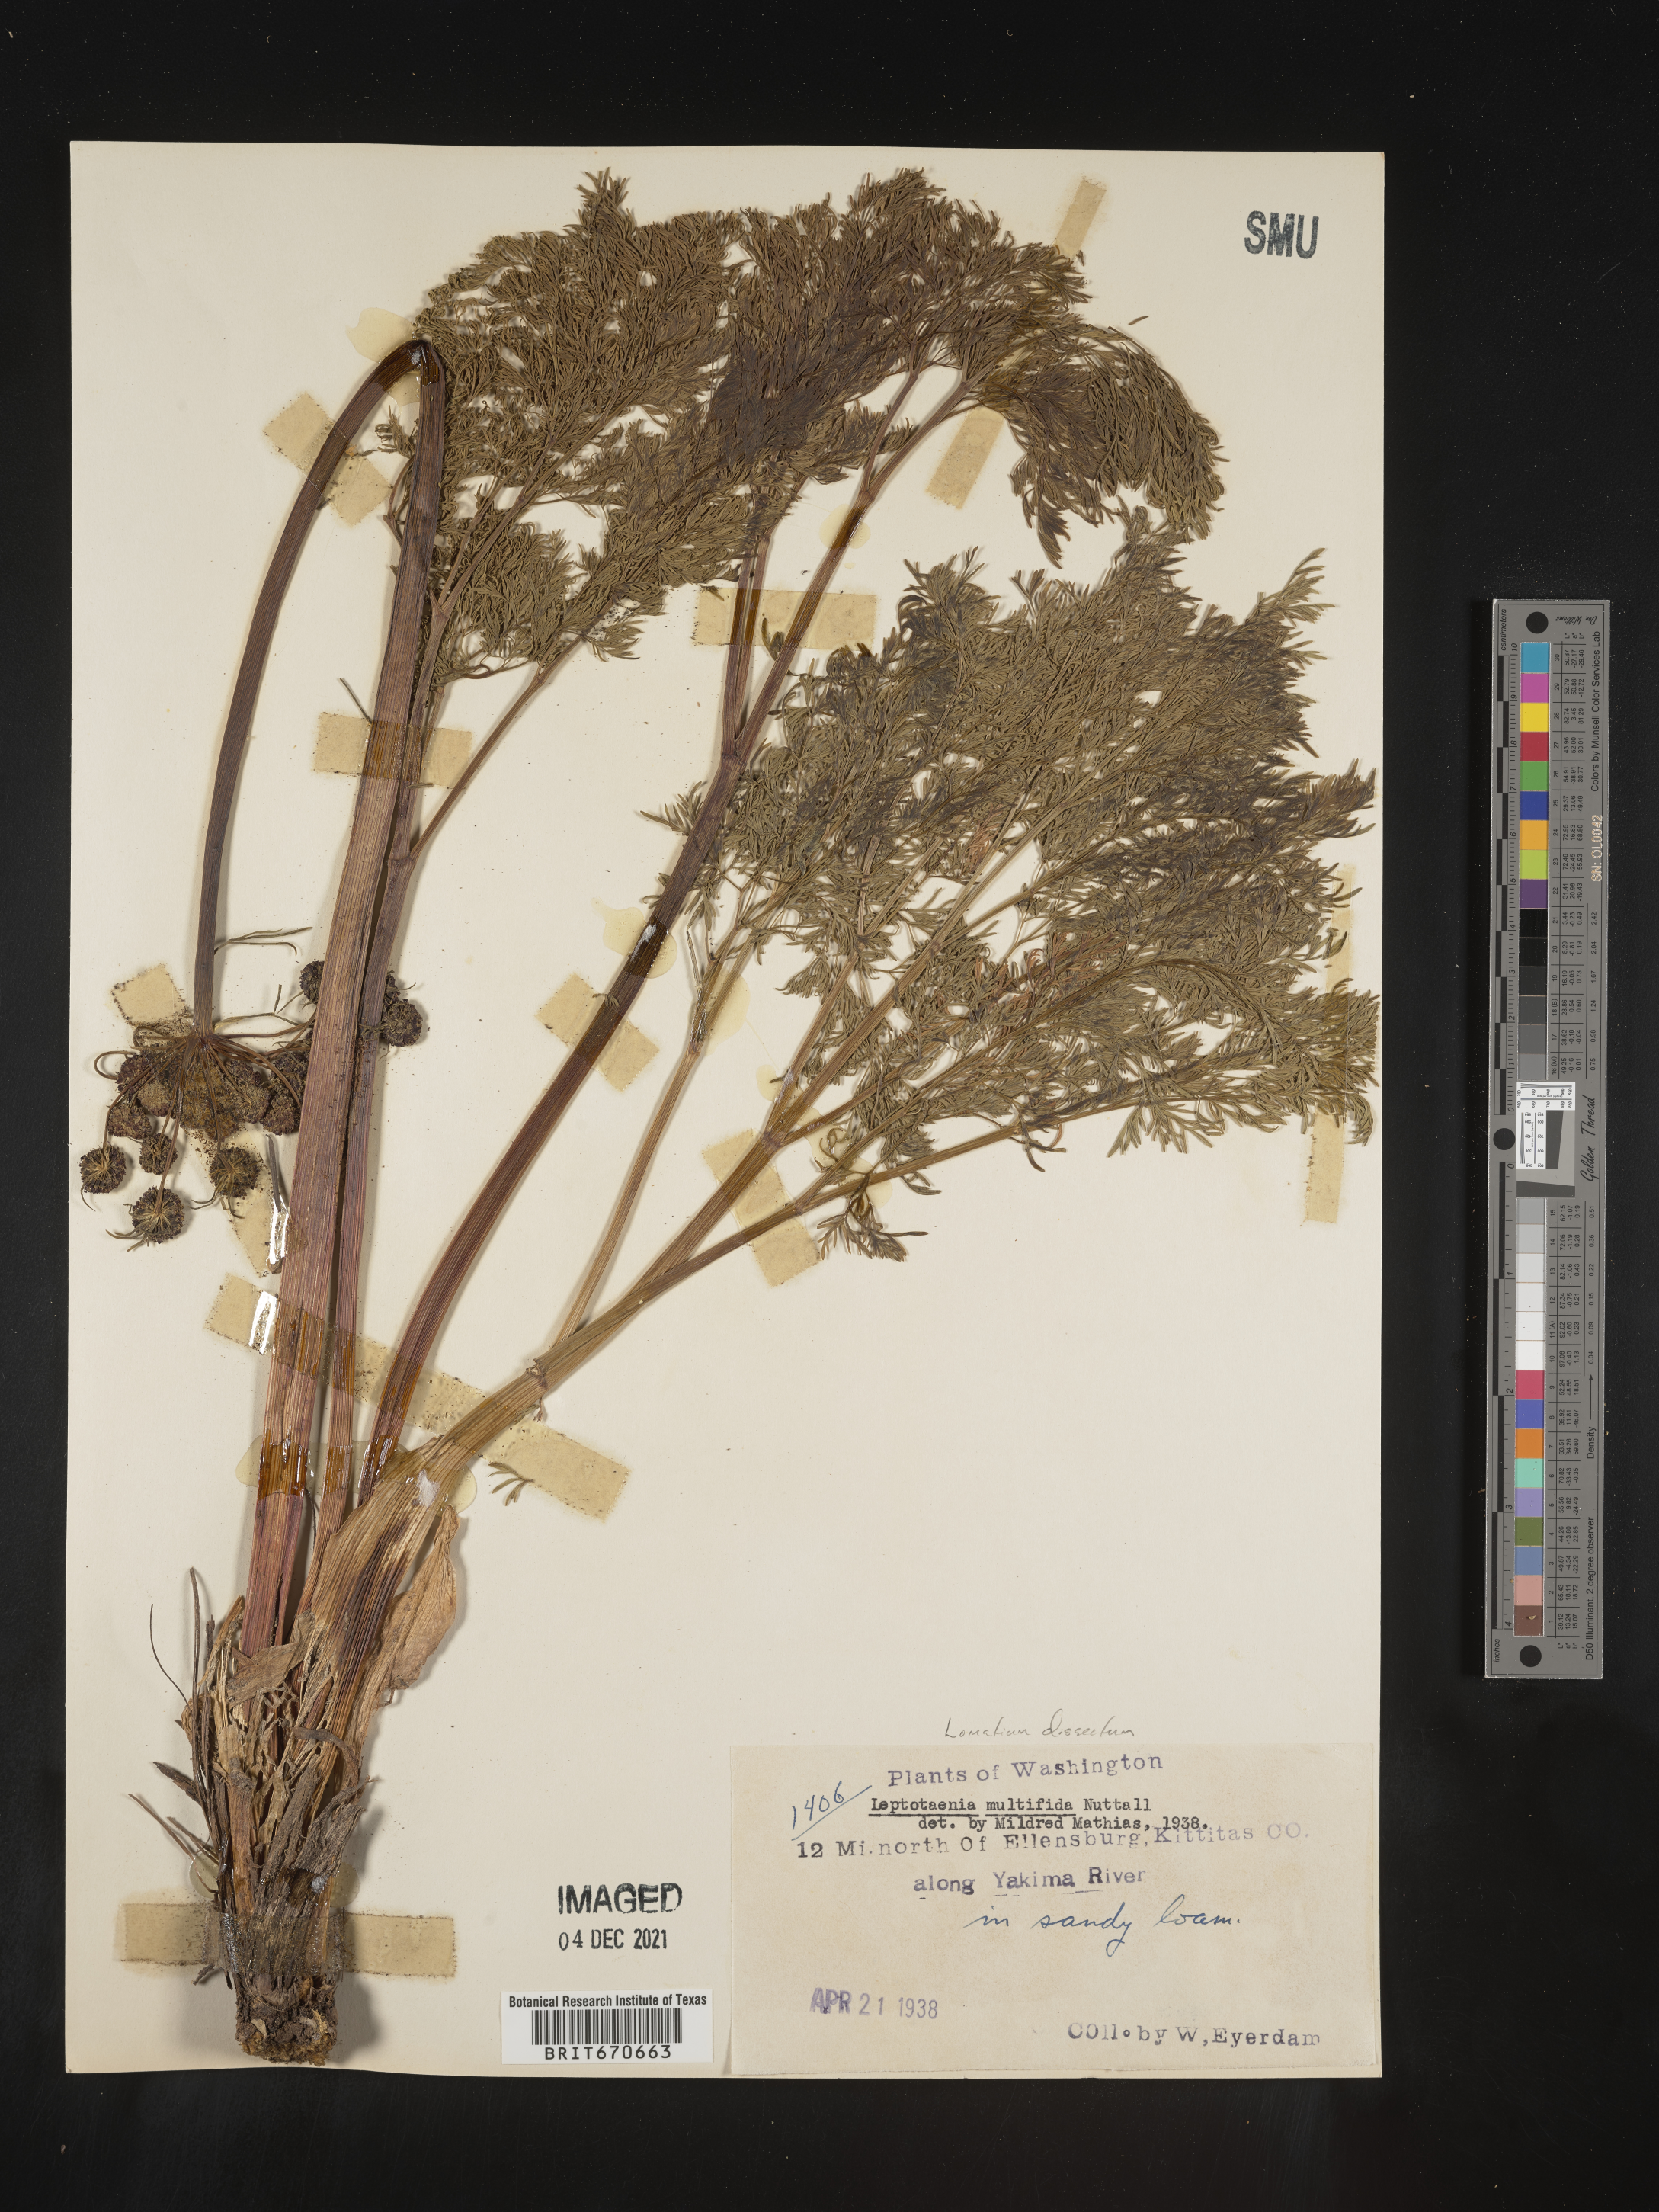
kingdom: Plantae
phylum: Tracheophyta
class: Magnoliopsida
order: Apiales
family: Apiaceae
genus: Lomatium
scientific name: Lomatium dissectum
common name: Lomatium
